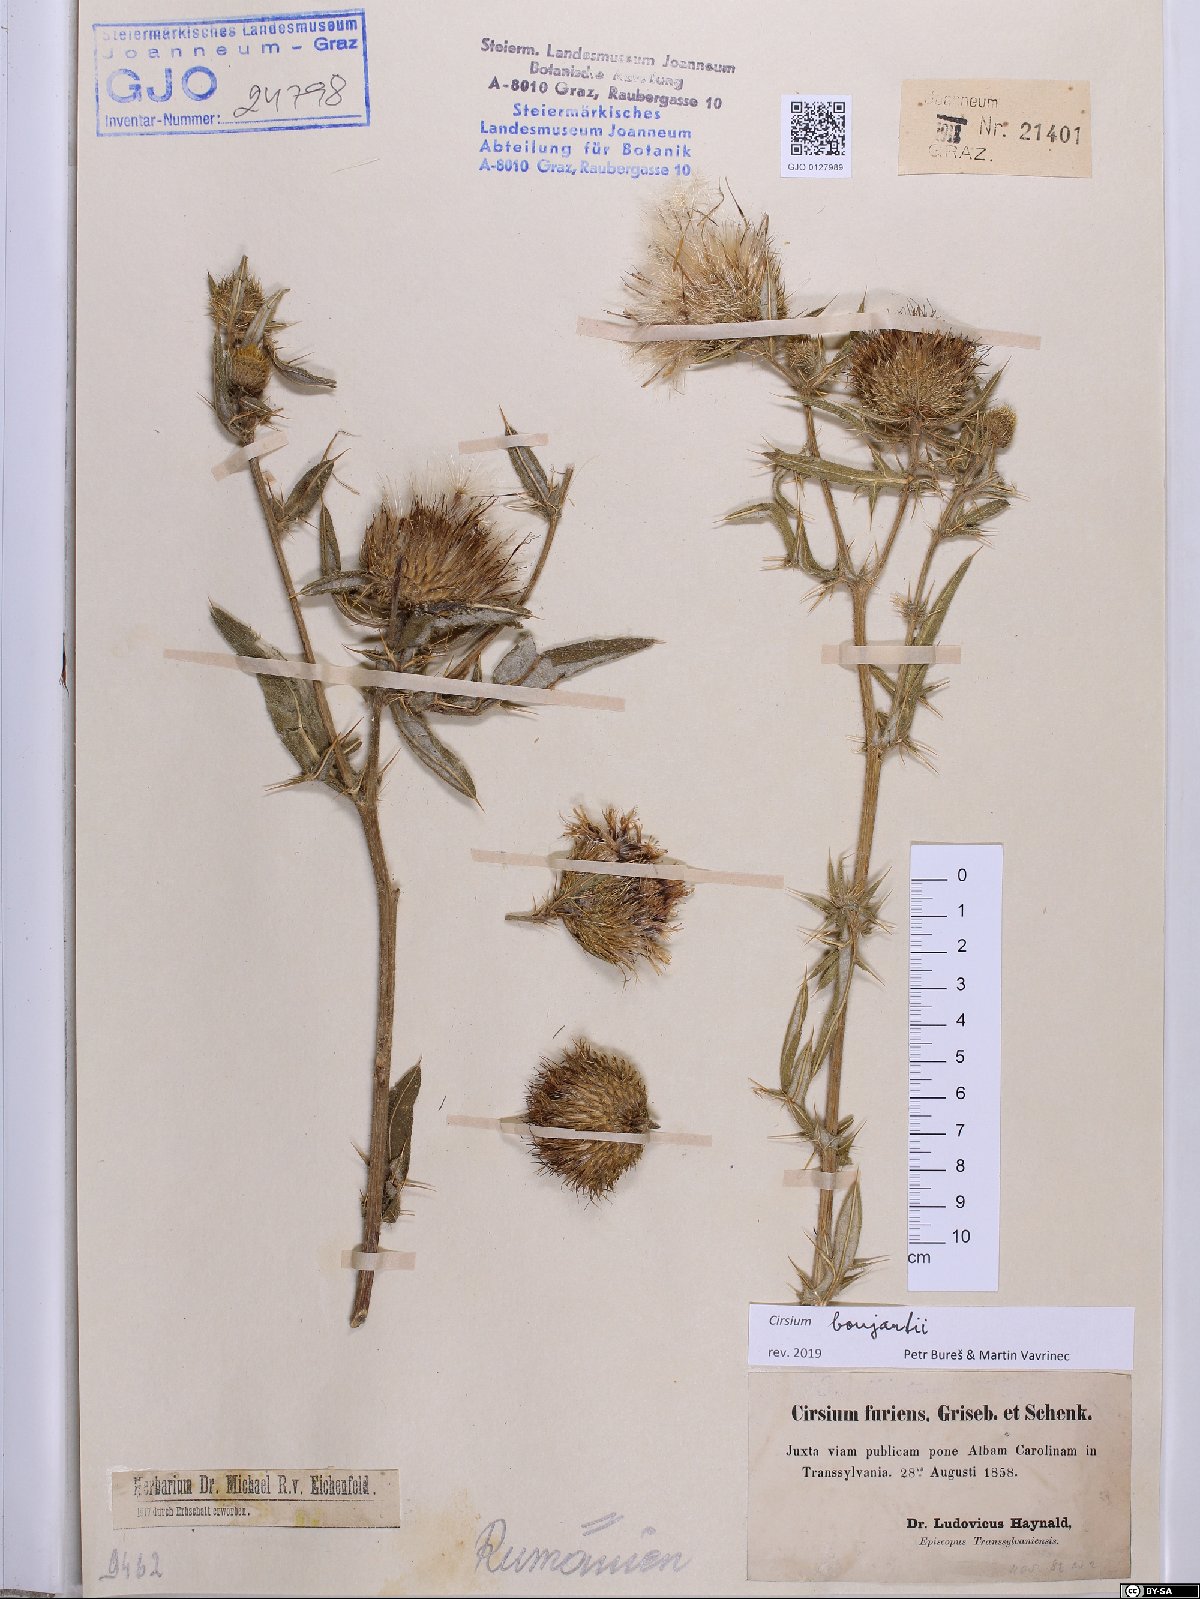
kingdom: Plantae
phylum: Tracheophyta
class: Magnoliopsida
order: Asterales
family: Asteraceae
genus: Lophiolepis
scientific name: Lophiolepis boujartii
